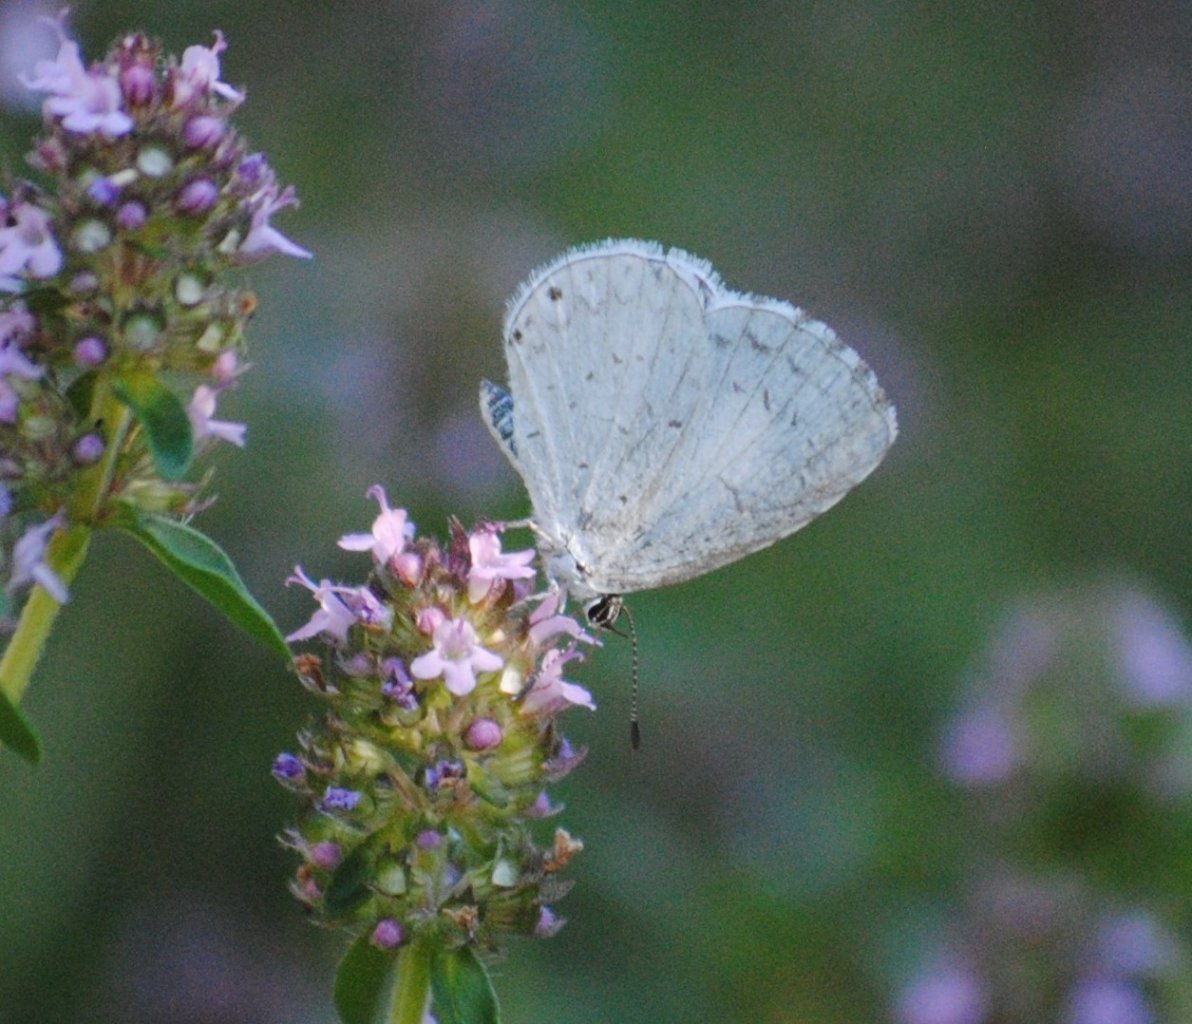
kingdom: Animalia
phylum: Arthropoda
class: Insecta
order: Lepidoptera
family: Lycaenidae
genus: Celastrina
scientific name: Celastrina
